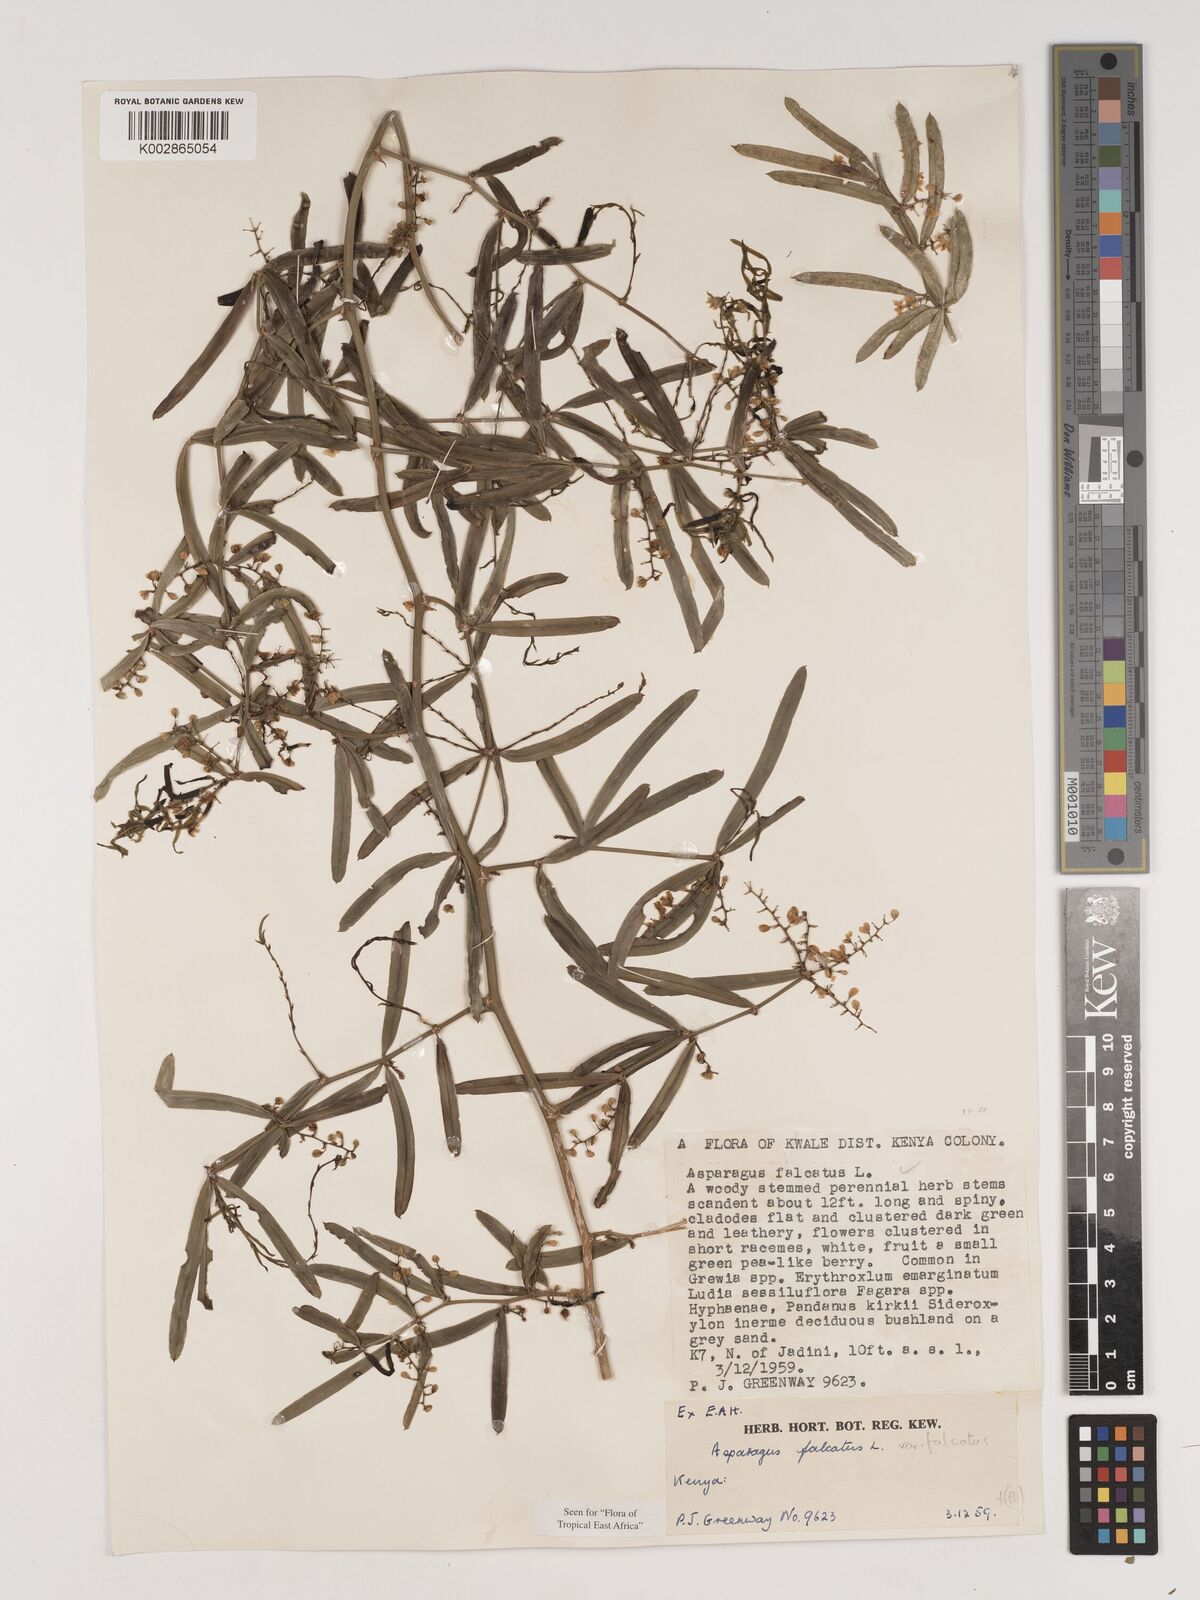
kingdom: Plantae
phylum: Tracheophyta
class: Liliopsida
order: Asparagales
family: Asparagaceae
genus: Asparagus
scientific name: Asparagus falcatus
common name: Asparagus
